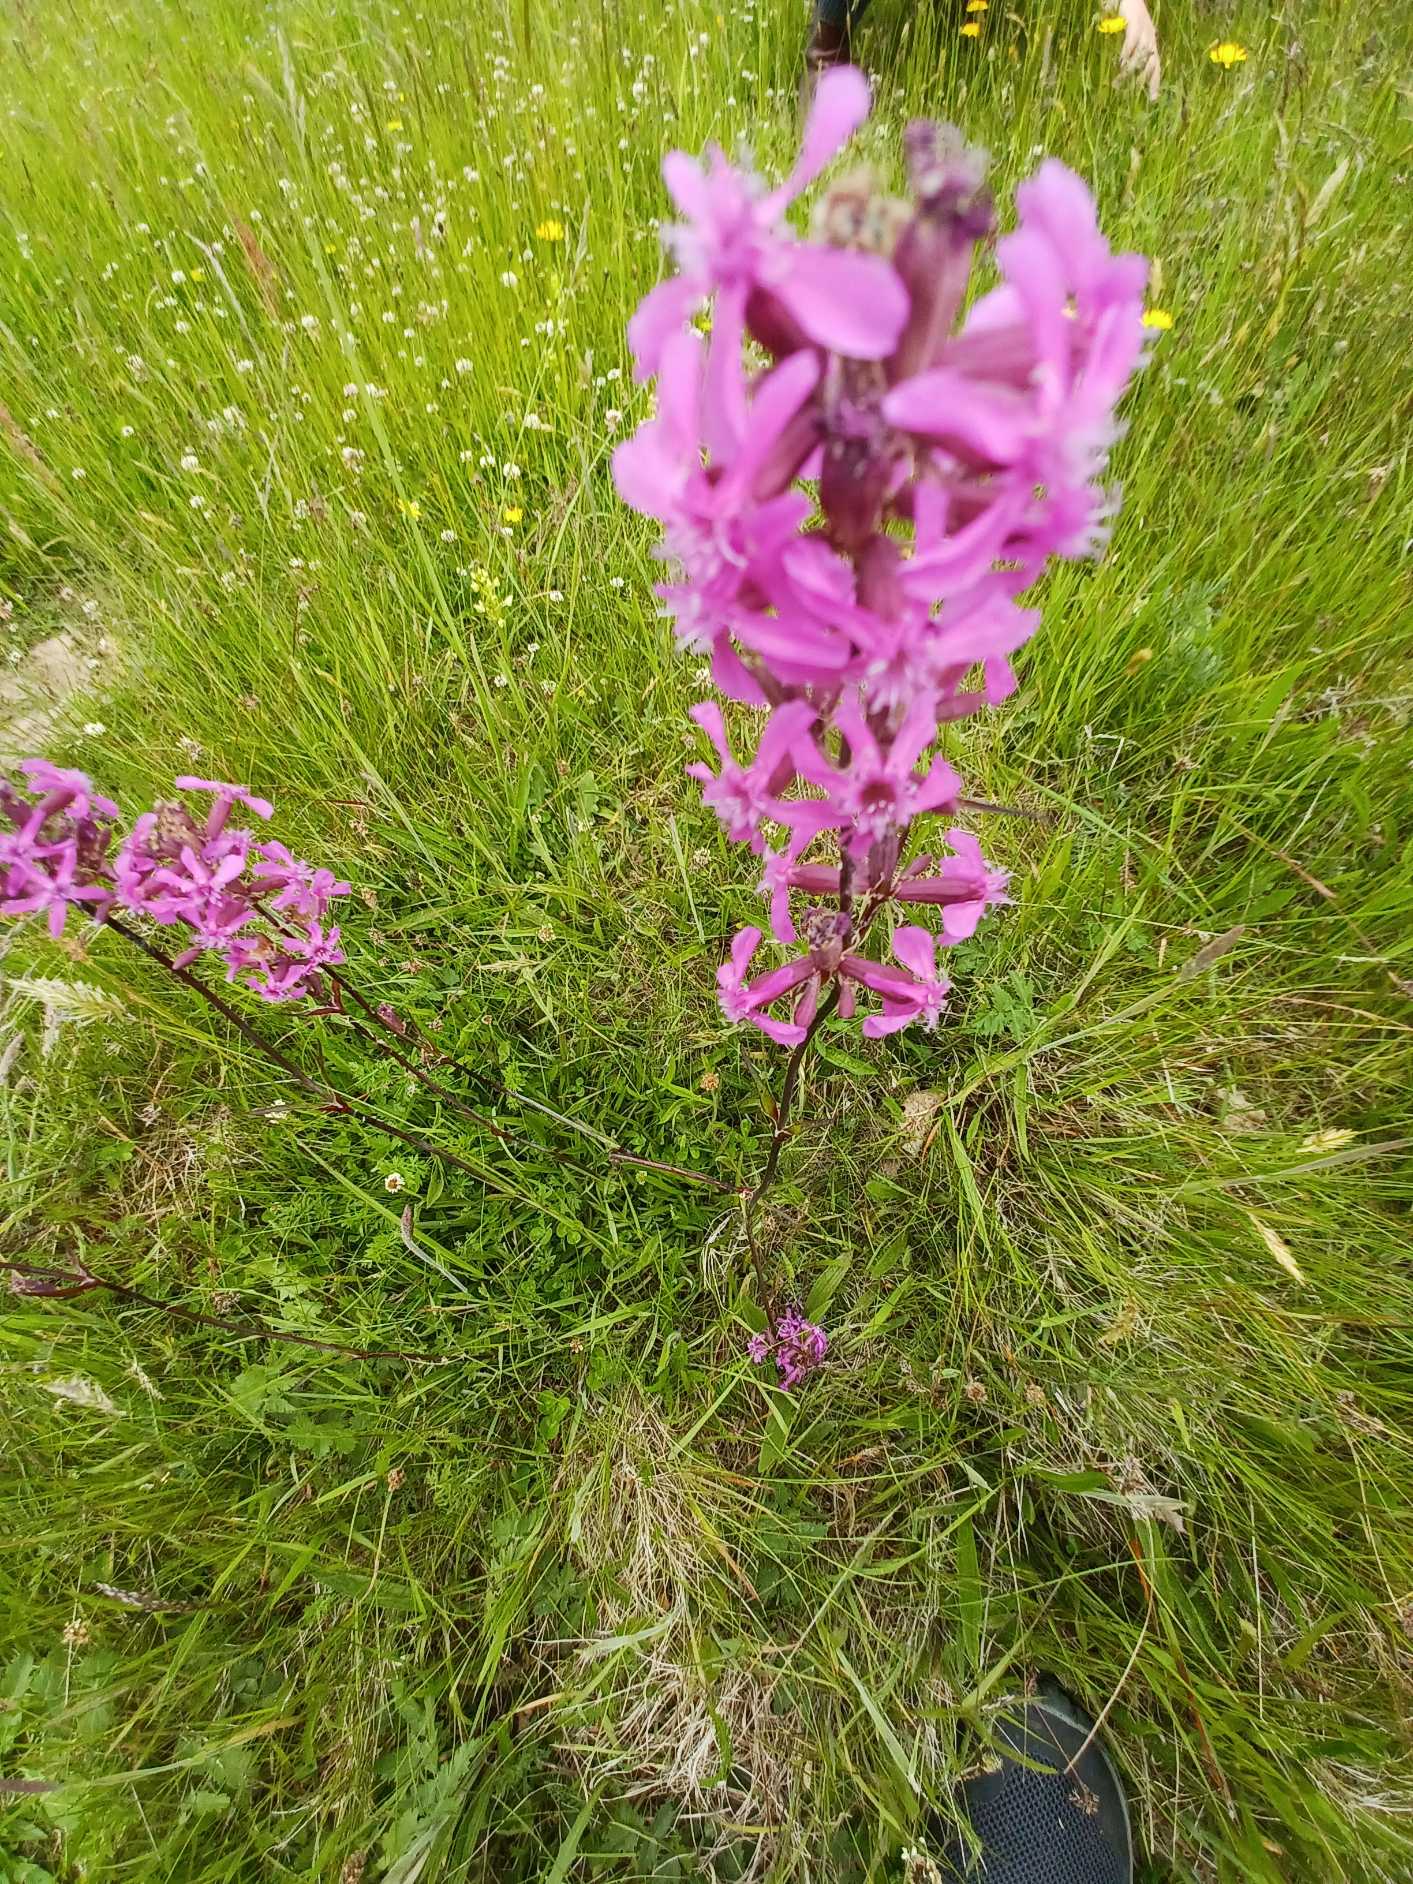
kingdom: Plantae
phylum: Tracheophyta
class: Magnoliopsida
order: Caryophyllales
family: Caryophyllaceae
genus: Viscaria
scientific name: Viscaria vulgaris
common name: Tjærenellike
